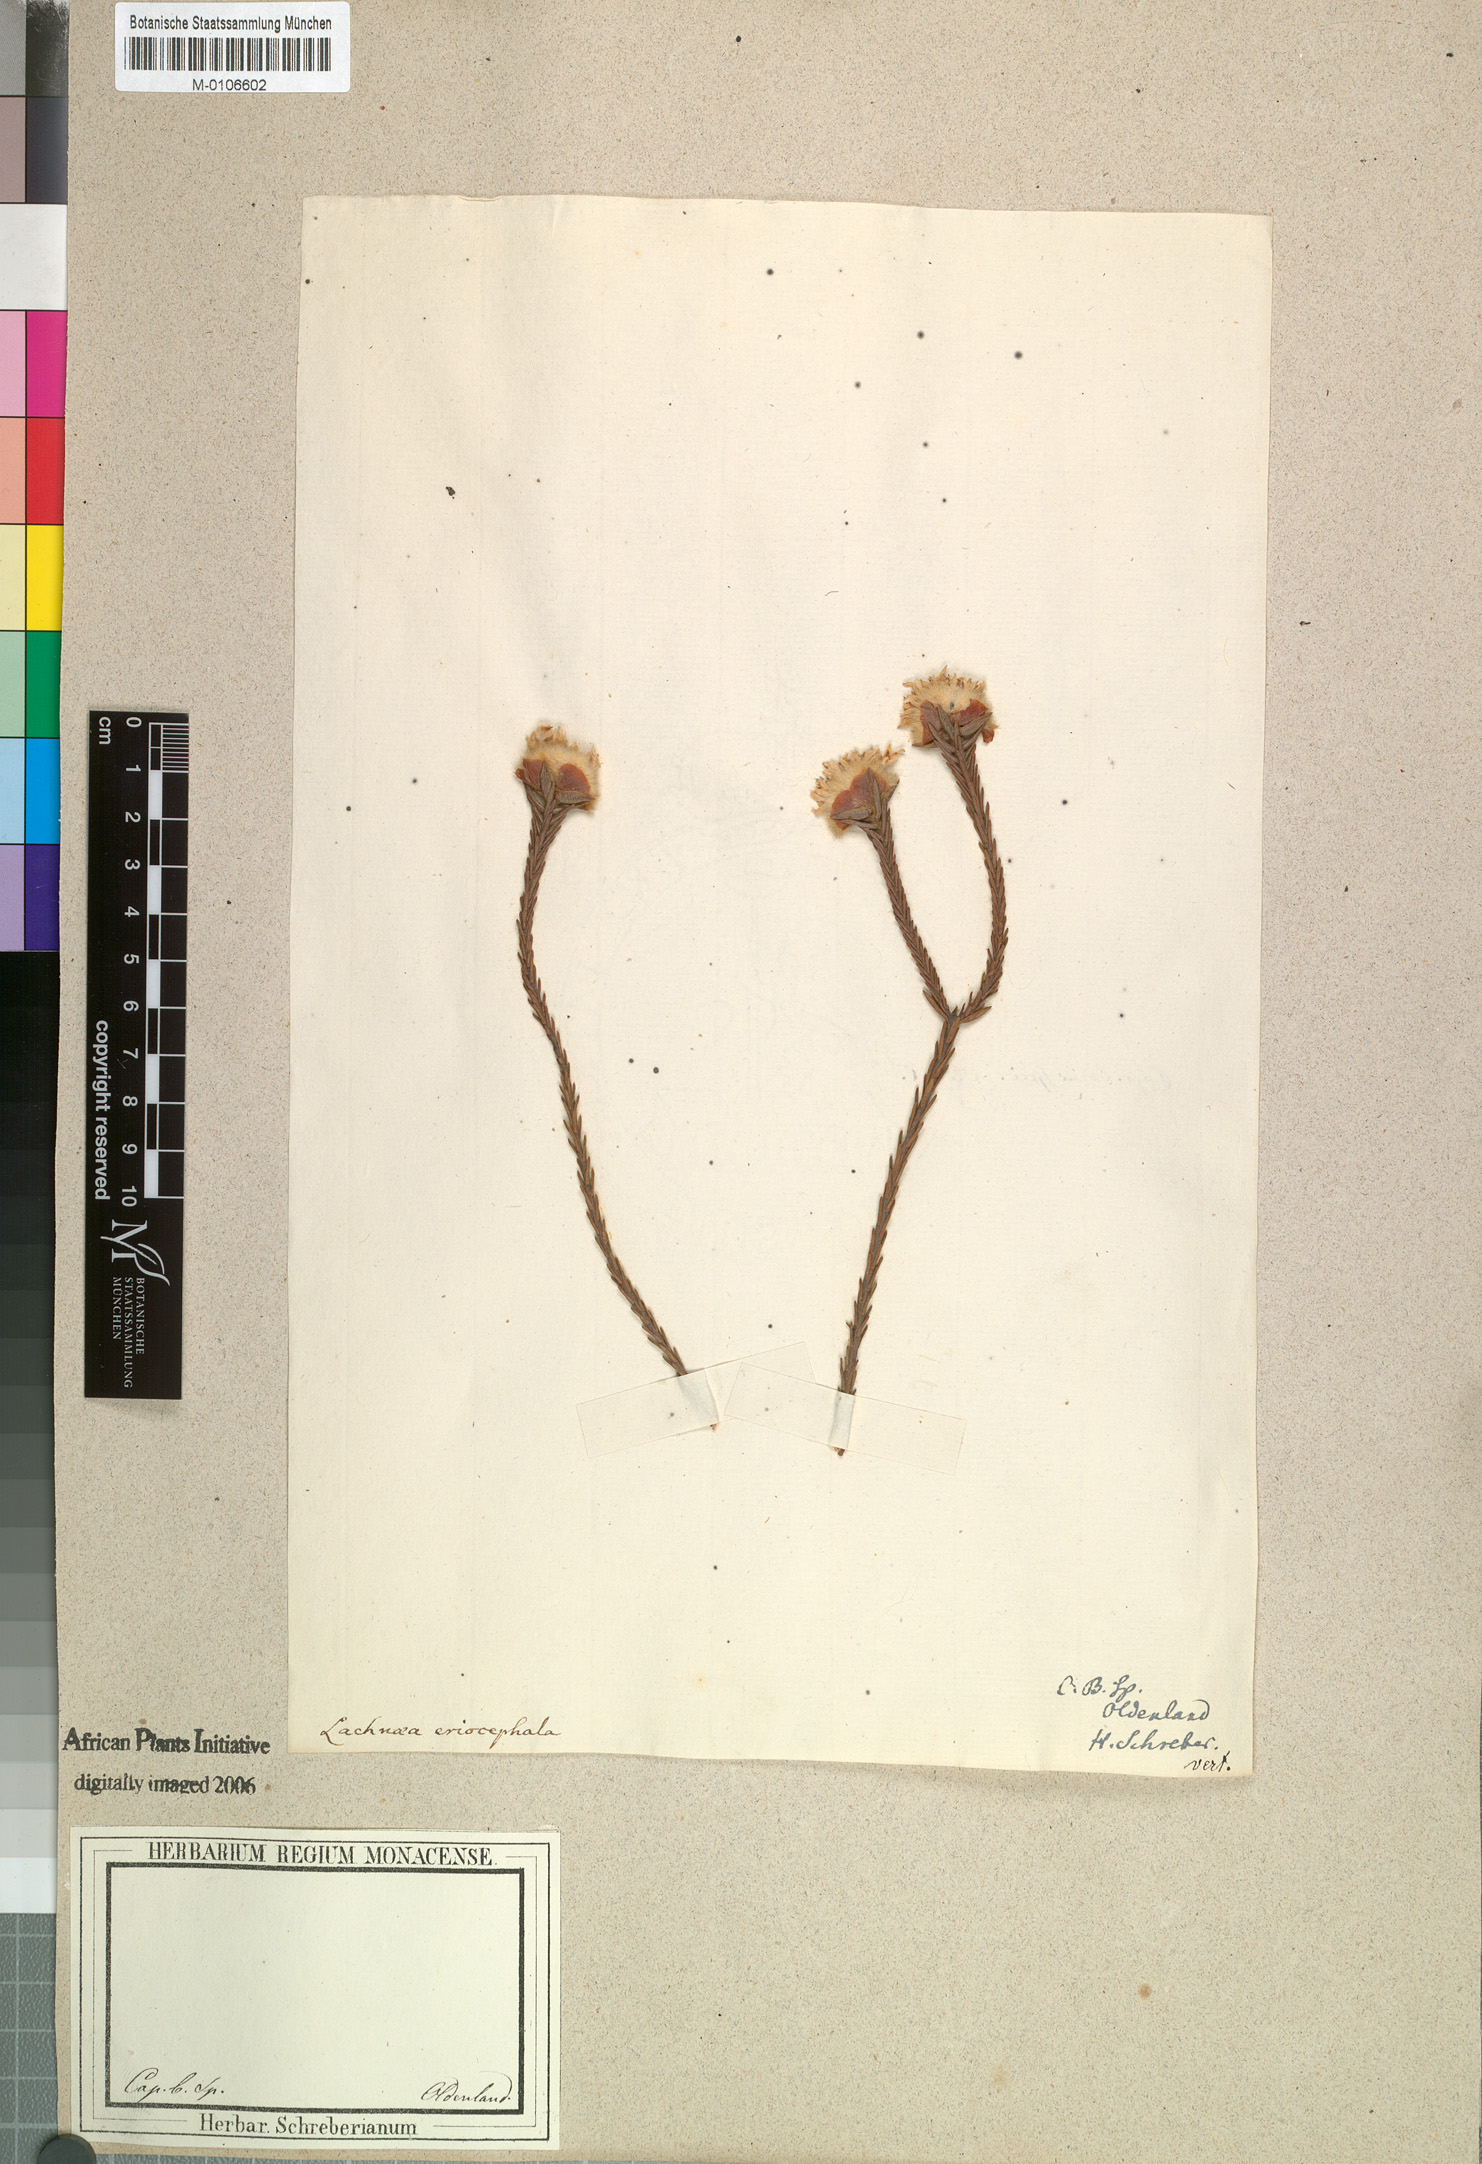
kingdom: Plantae
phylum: Tracheophyta
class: Magnoliopsida
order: Malvales
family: Thymelaeaceae
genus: Lachnaea
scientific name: Lachnaea eriocephala
